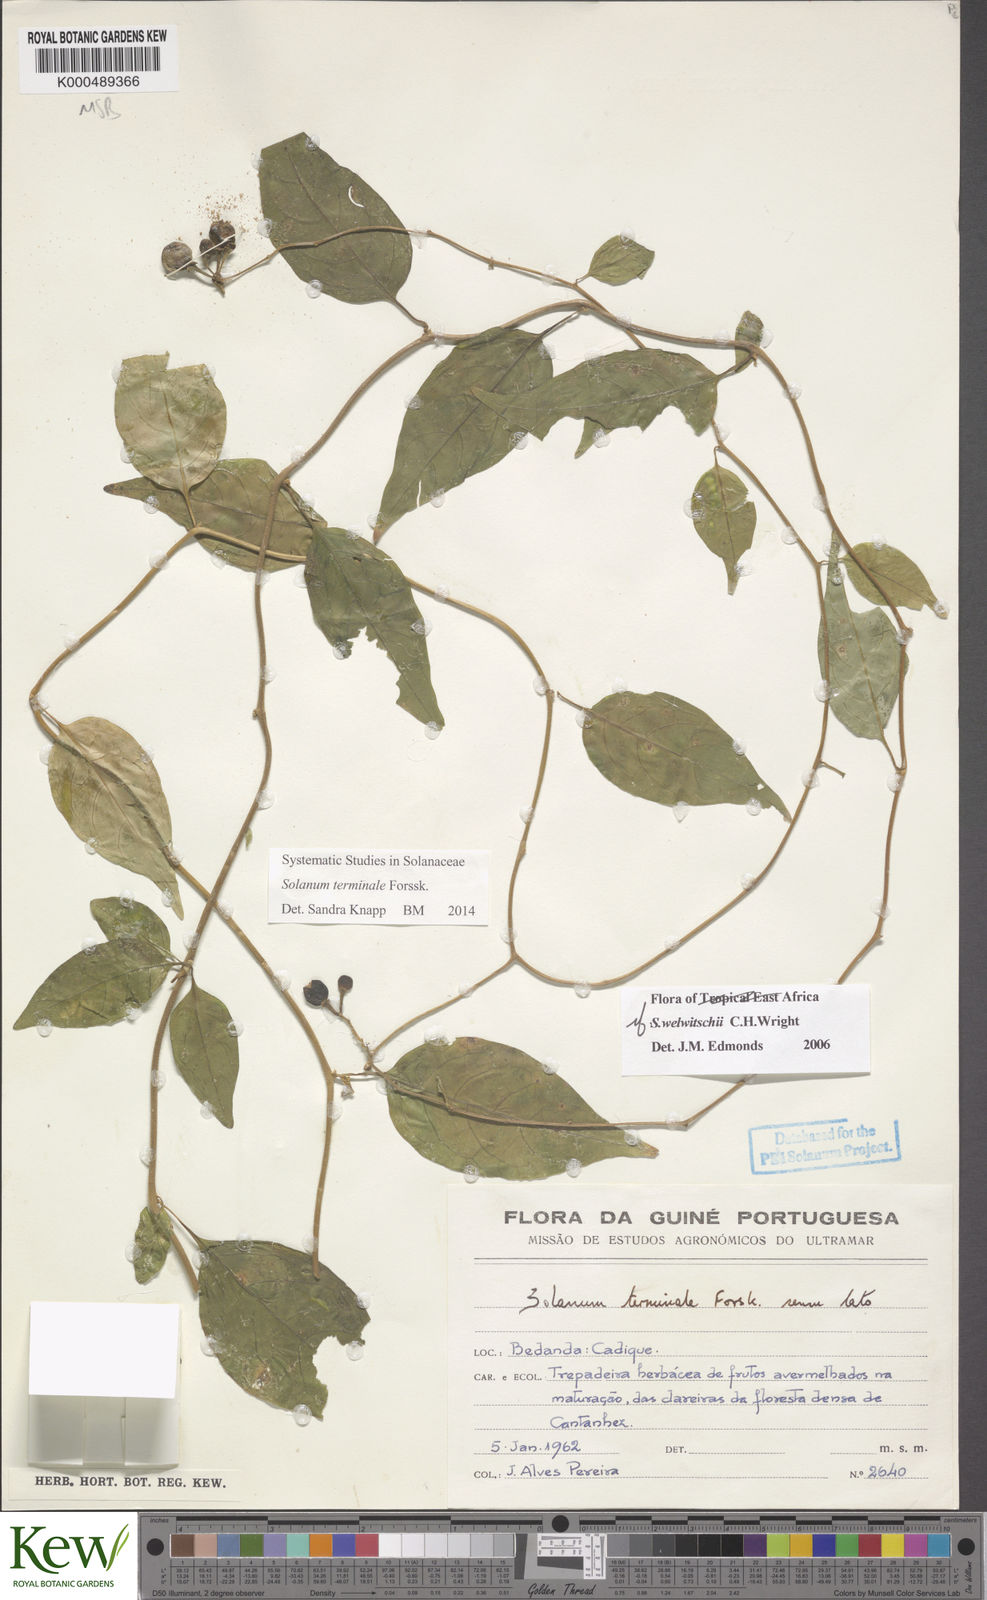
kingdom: Plantae
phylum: Tracheophyta
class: Magnoliopsida
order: Solanales
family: Solanaceae
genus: Solanum
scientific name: Solanum terminale
